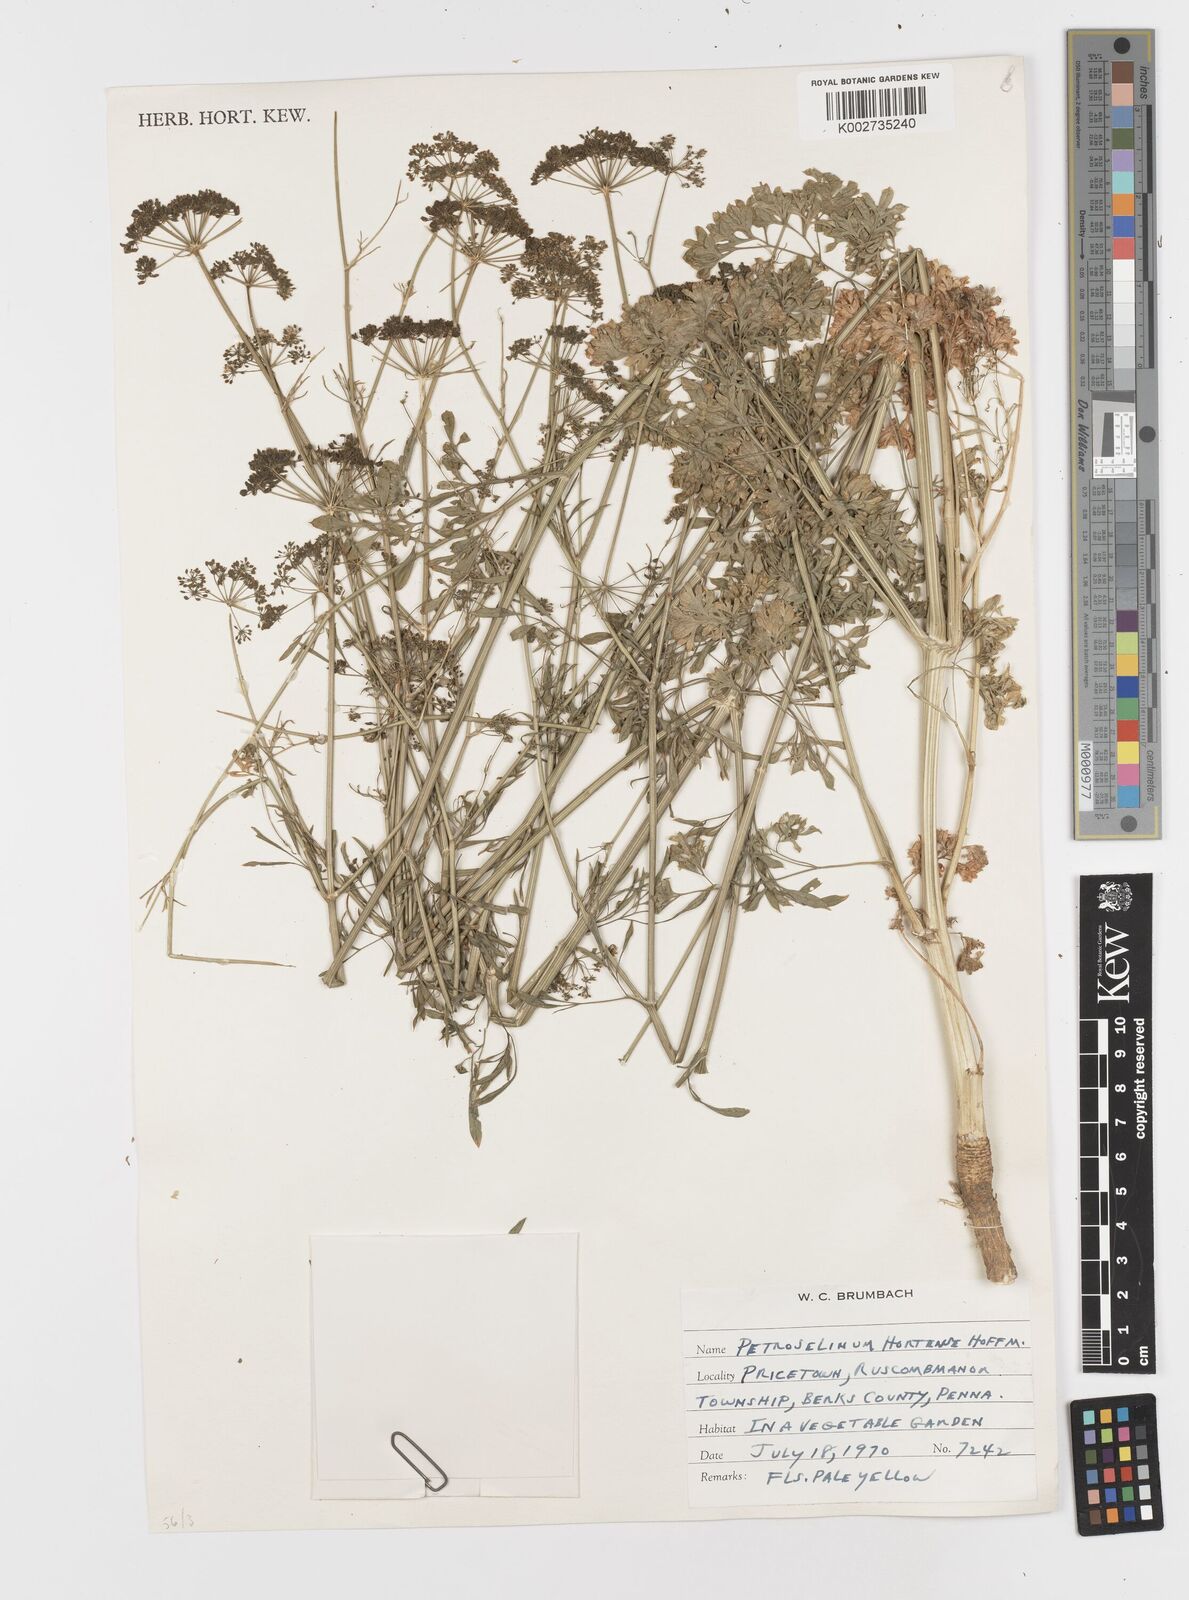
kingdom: Plantae
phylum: Tracheophyta
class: Magnoliopsida
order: Apiales
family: Apiaceae
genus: Petroselinum
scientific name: Petroselinum crispum
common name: Parsley
